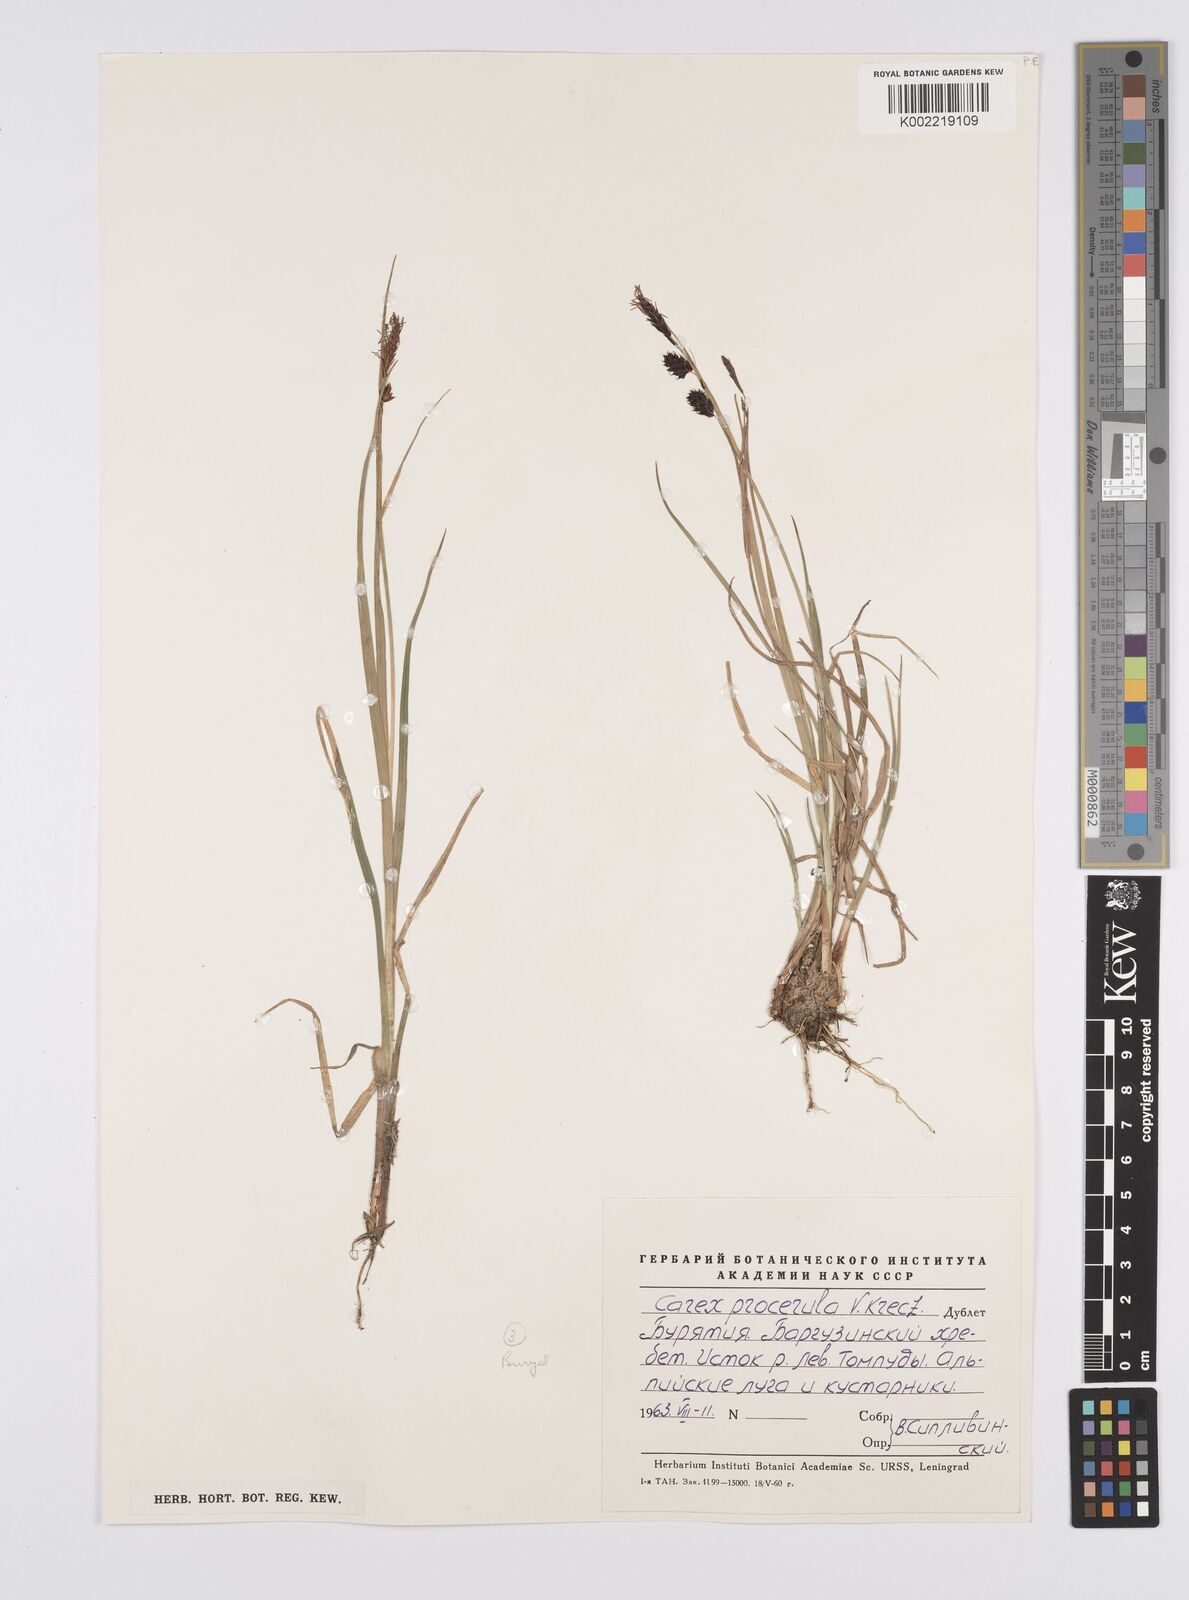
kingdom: Plantae
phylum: Tracheophyta
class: Liliopsida
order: Poales
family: Cyperaceae
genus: Carex
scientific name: Carex saxatilis
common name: Russet sedge
